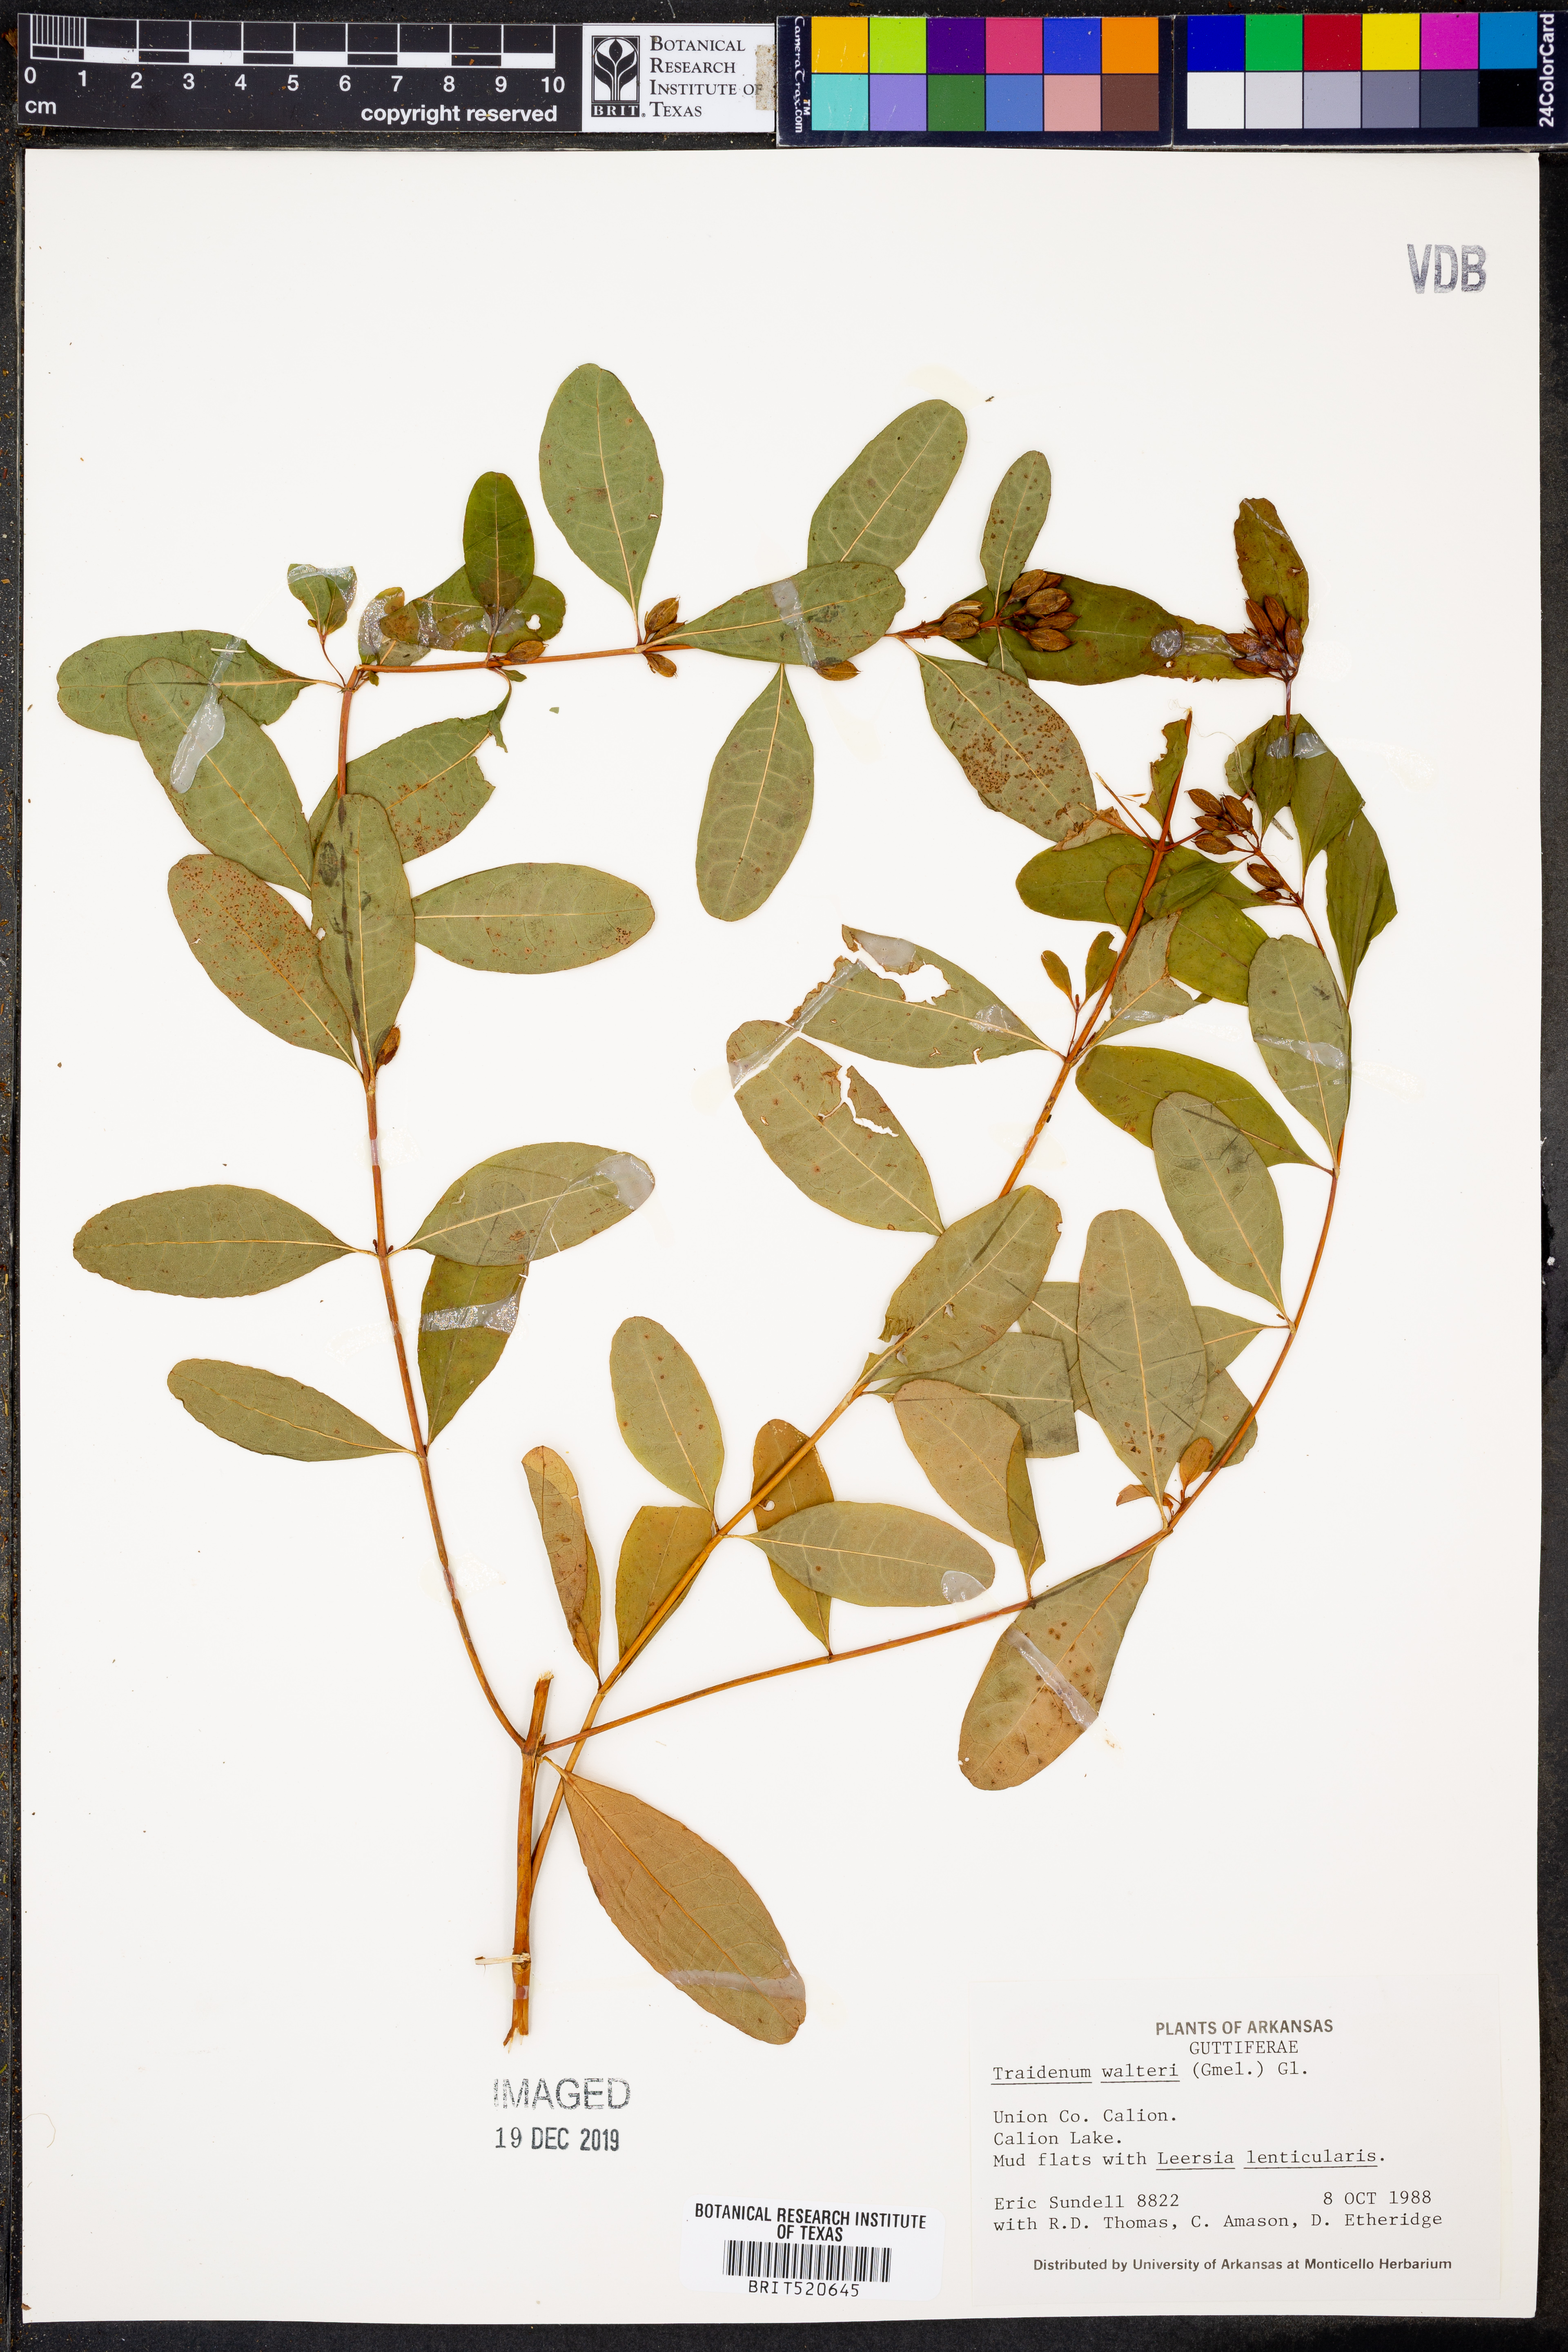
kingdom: Plantae
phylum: Tracheophyta
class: Magnoliopsida
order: Malpighiales
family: Hypericaceae
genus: Triadenum
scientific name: Triadenum walteri
